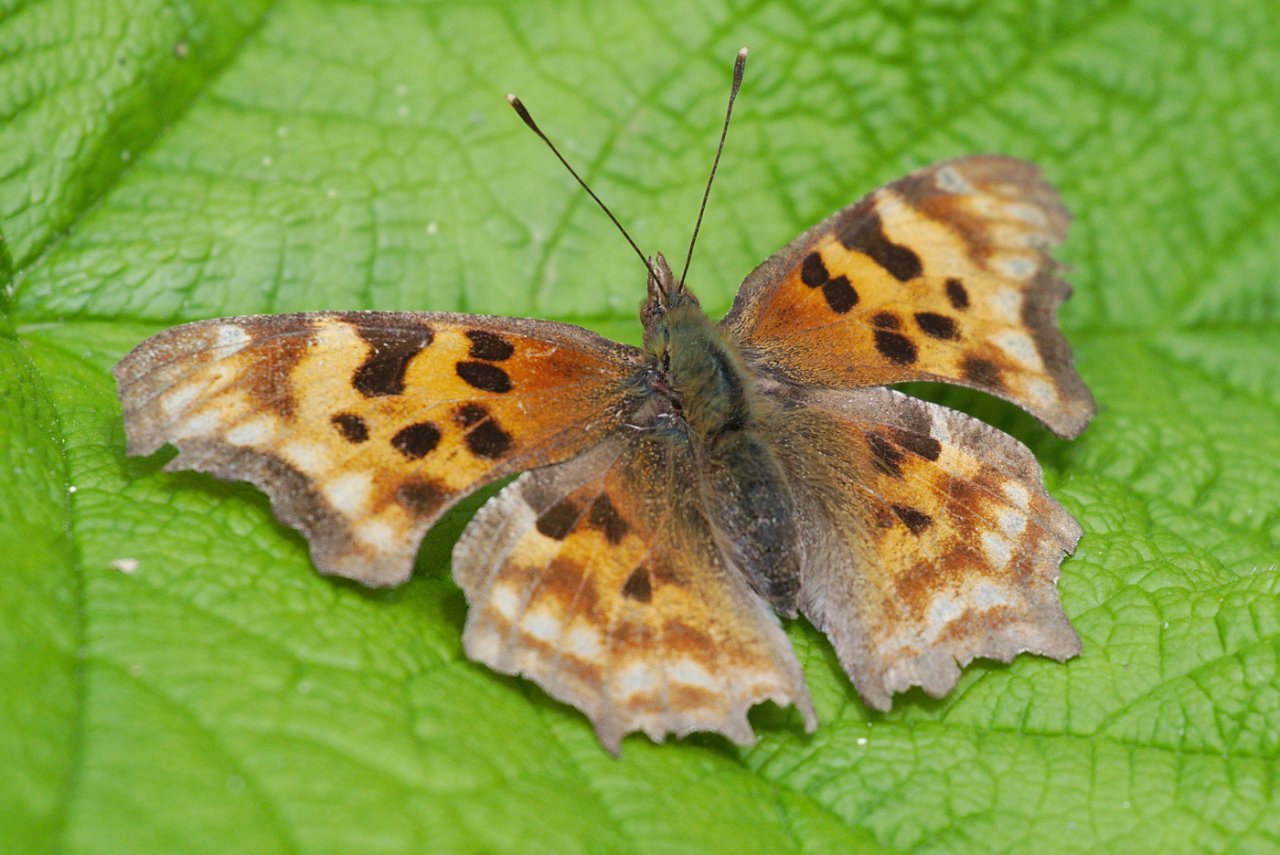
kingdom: Animalia
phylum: Arthropoda
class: Insecta
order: Lepidoptera
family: Nymphalidae
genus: Polygonia
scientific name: Polygonia satyrus
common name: Satyr Comma
